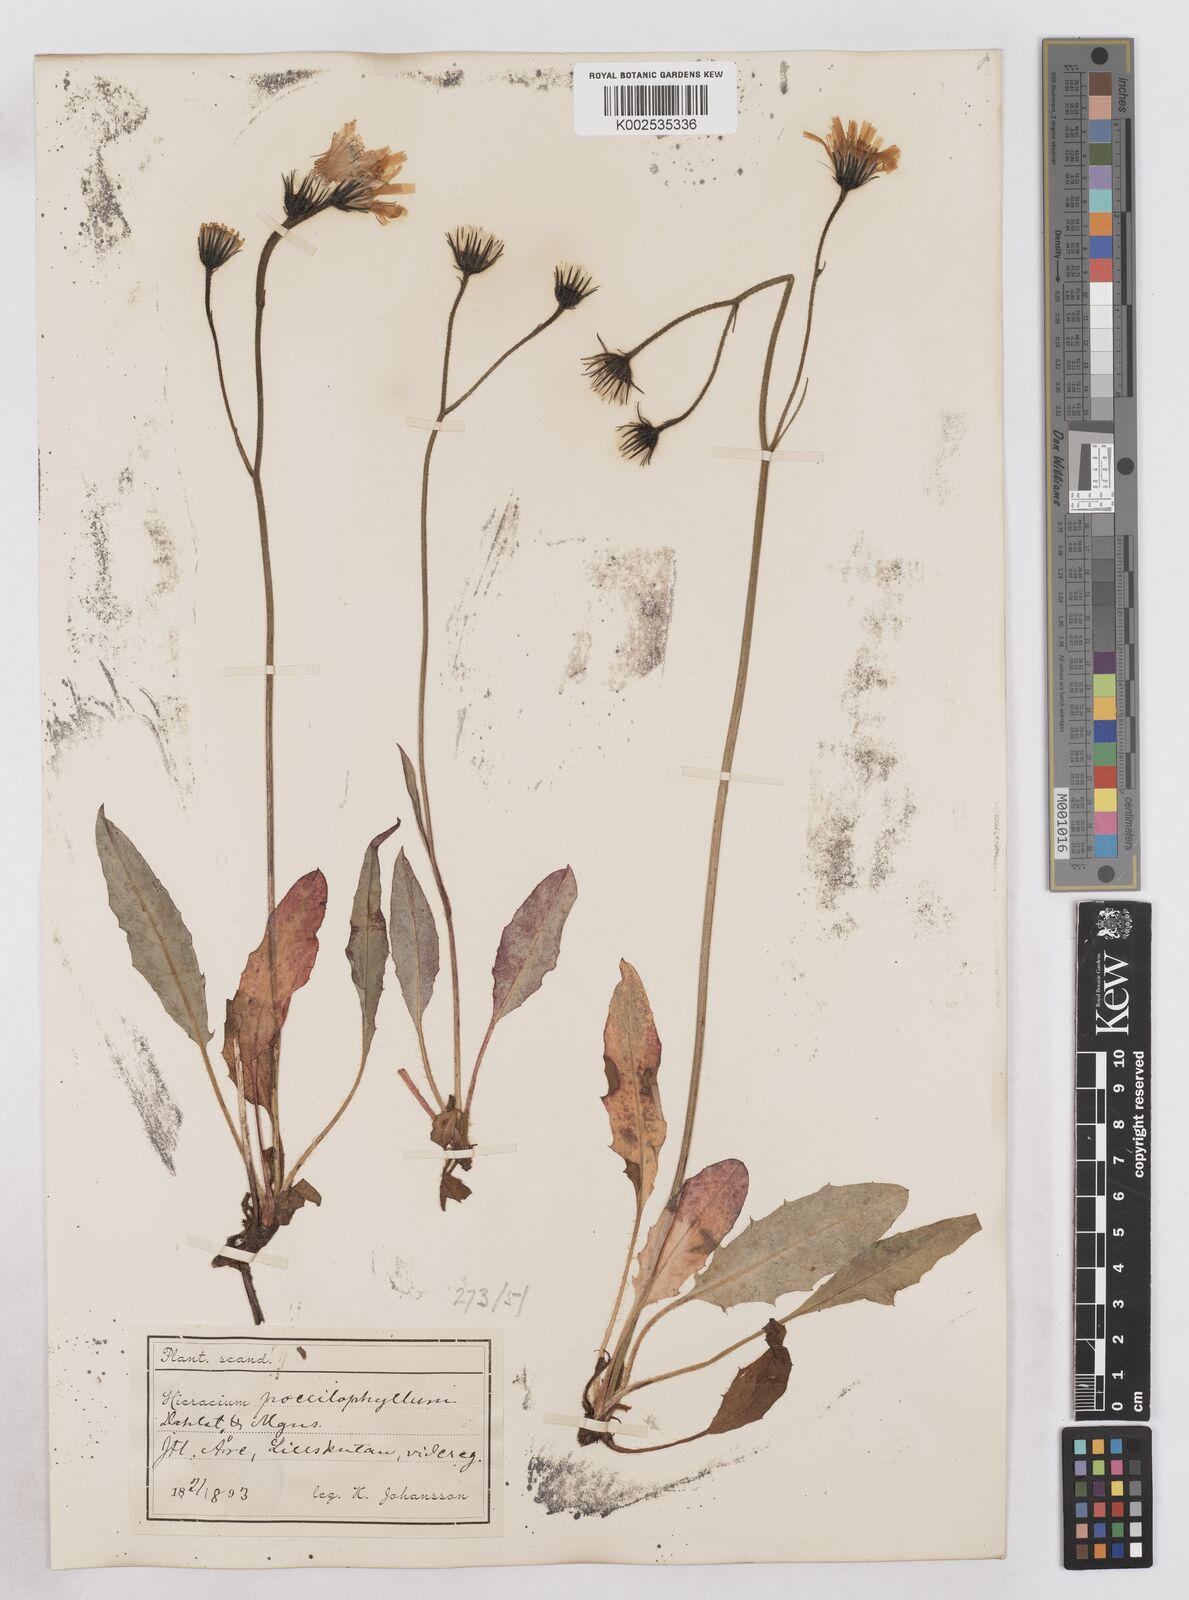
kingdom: Plantae
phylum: Tracheophyta
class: Magnoliopsida
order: Asterales
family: Asteraceae
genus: Hieracium
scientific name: Hieracium conspurcans
